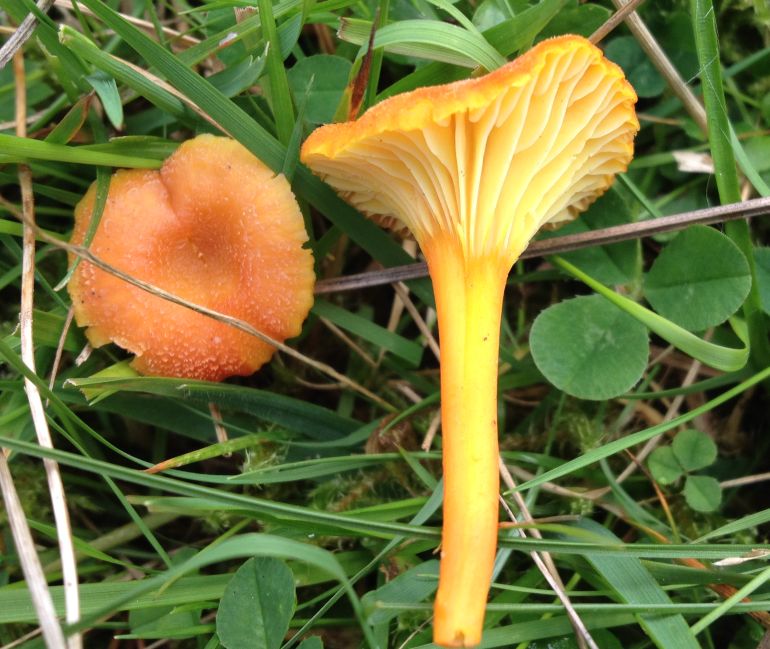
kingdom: Fungi
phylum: Basidiomycota
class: Agaricomycetes
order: Agaricales
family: Hygrophoraceae
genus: Hygrocybe
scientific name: Hygrocybe cantharellus
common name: kantarel-vokshat
